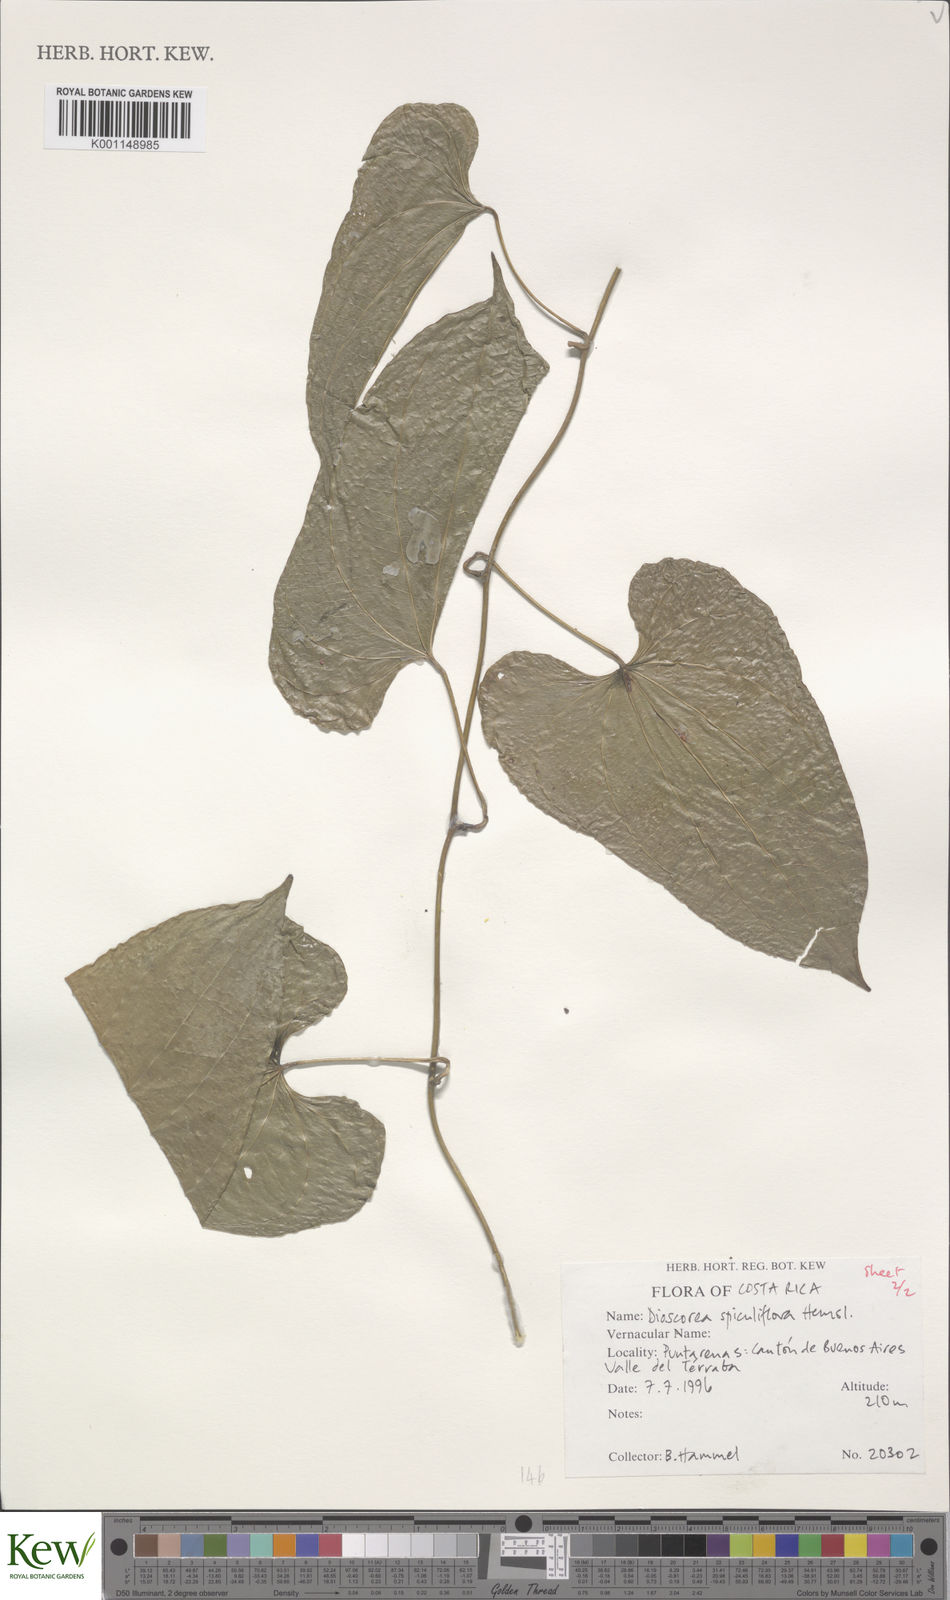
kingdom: Plantae
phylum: Tracheophyta
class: Liliopsida
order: Dioscoreales
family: Dioscoreaceae
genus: Dioscorea
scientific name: Dioscorea spiculiflora
